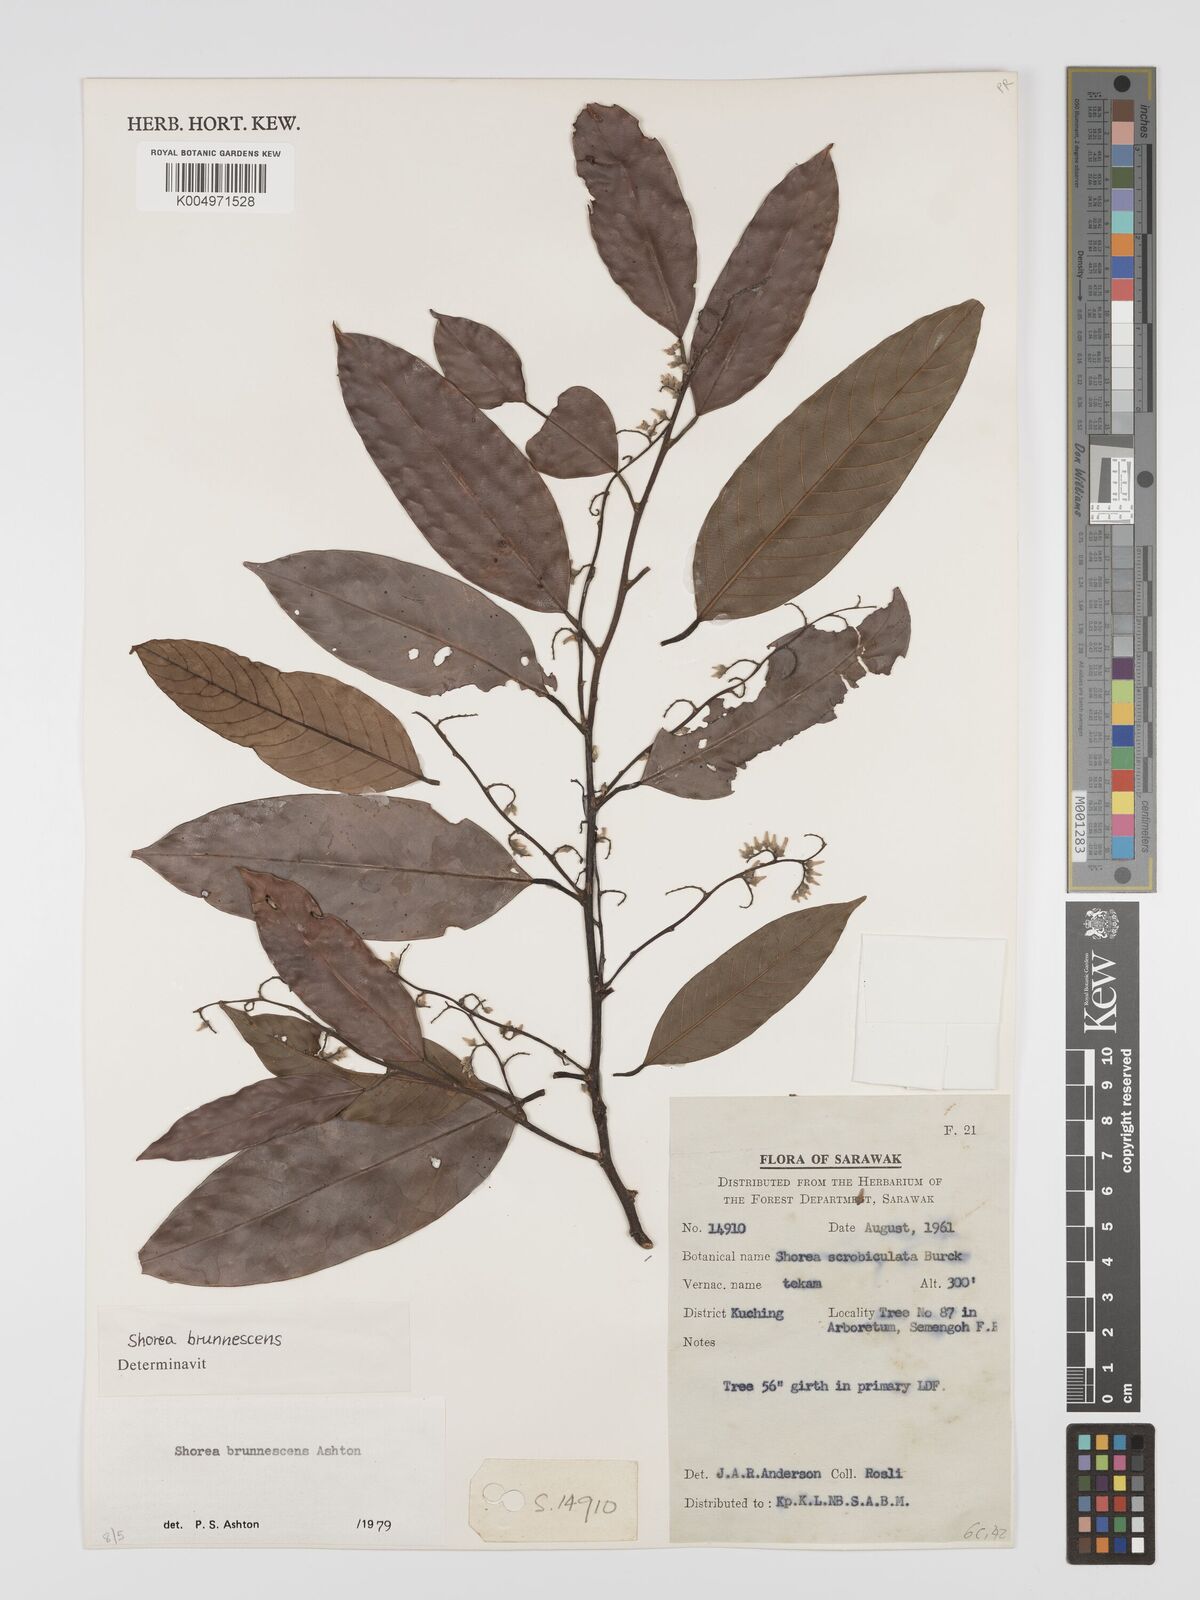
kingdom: Plantae
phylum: Tracheophyta
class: Magnoliopsida
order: Malvales
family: Dipterocarpaceae
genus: Shorea
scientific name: Shorea brunnescens
